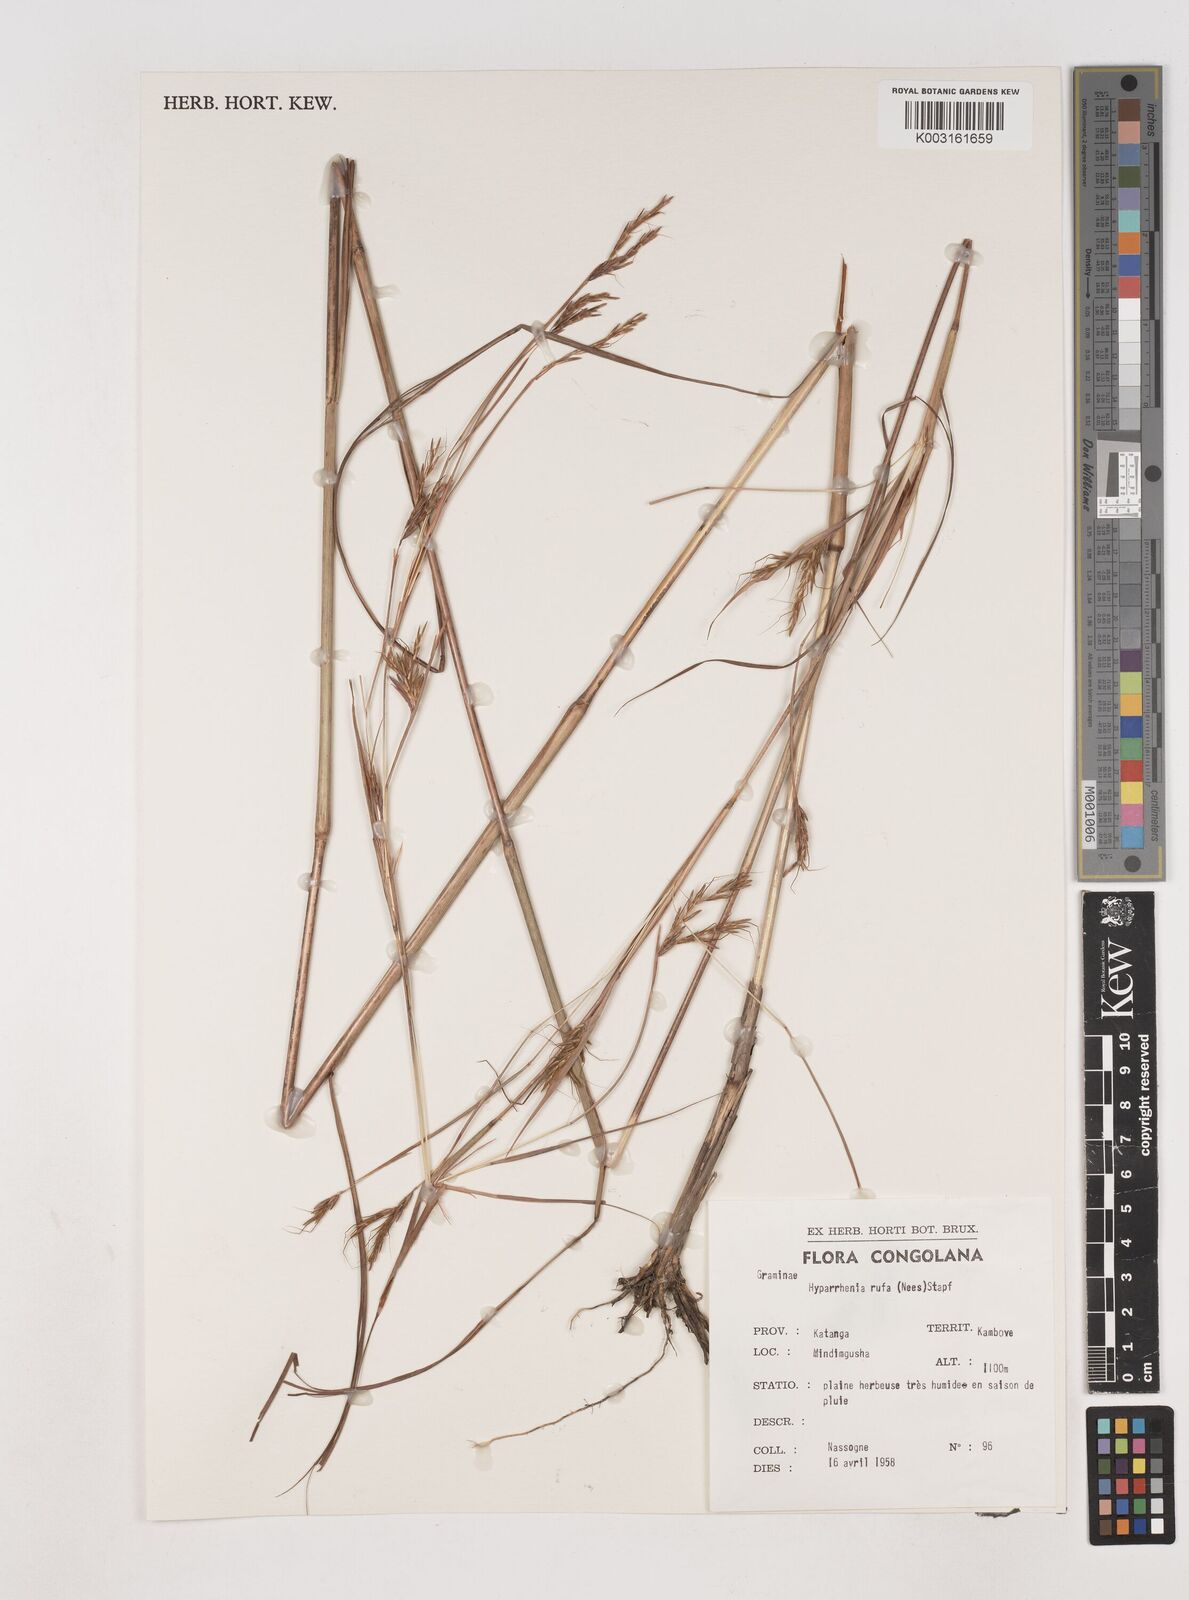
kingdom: Plantae
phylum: Tracheophyta
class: Liliopsida
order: Poales
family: Poaceae
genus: Hyparrhenia
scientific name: Hyparrhenia rufa
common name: Jaraguagrass
